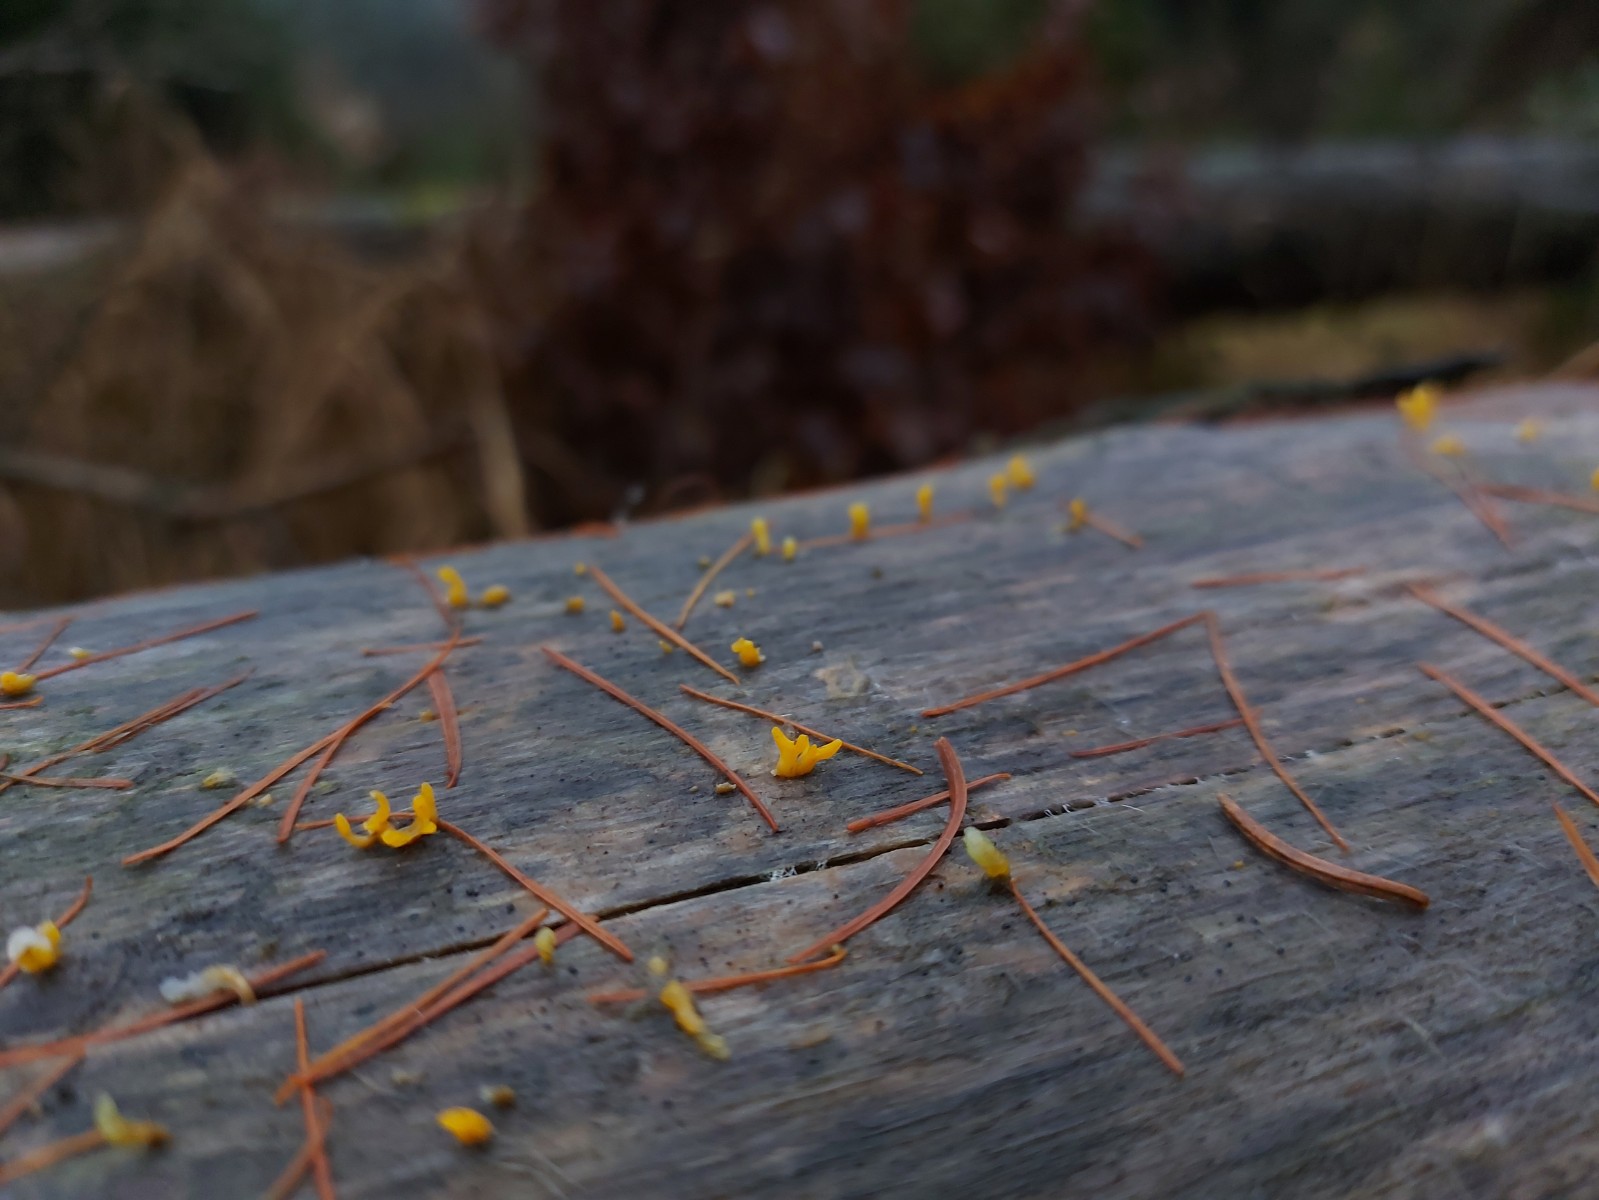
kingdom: Fungi
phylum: Basidiomycota
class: Dacrymycetes
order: Dacrymycetales
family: Dacrymycetaceae
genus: Calocera
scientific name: Calocera furcata
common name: fyrre-guldgaffel
